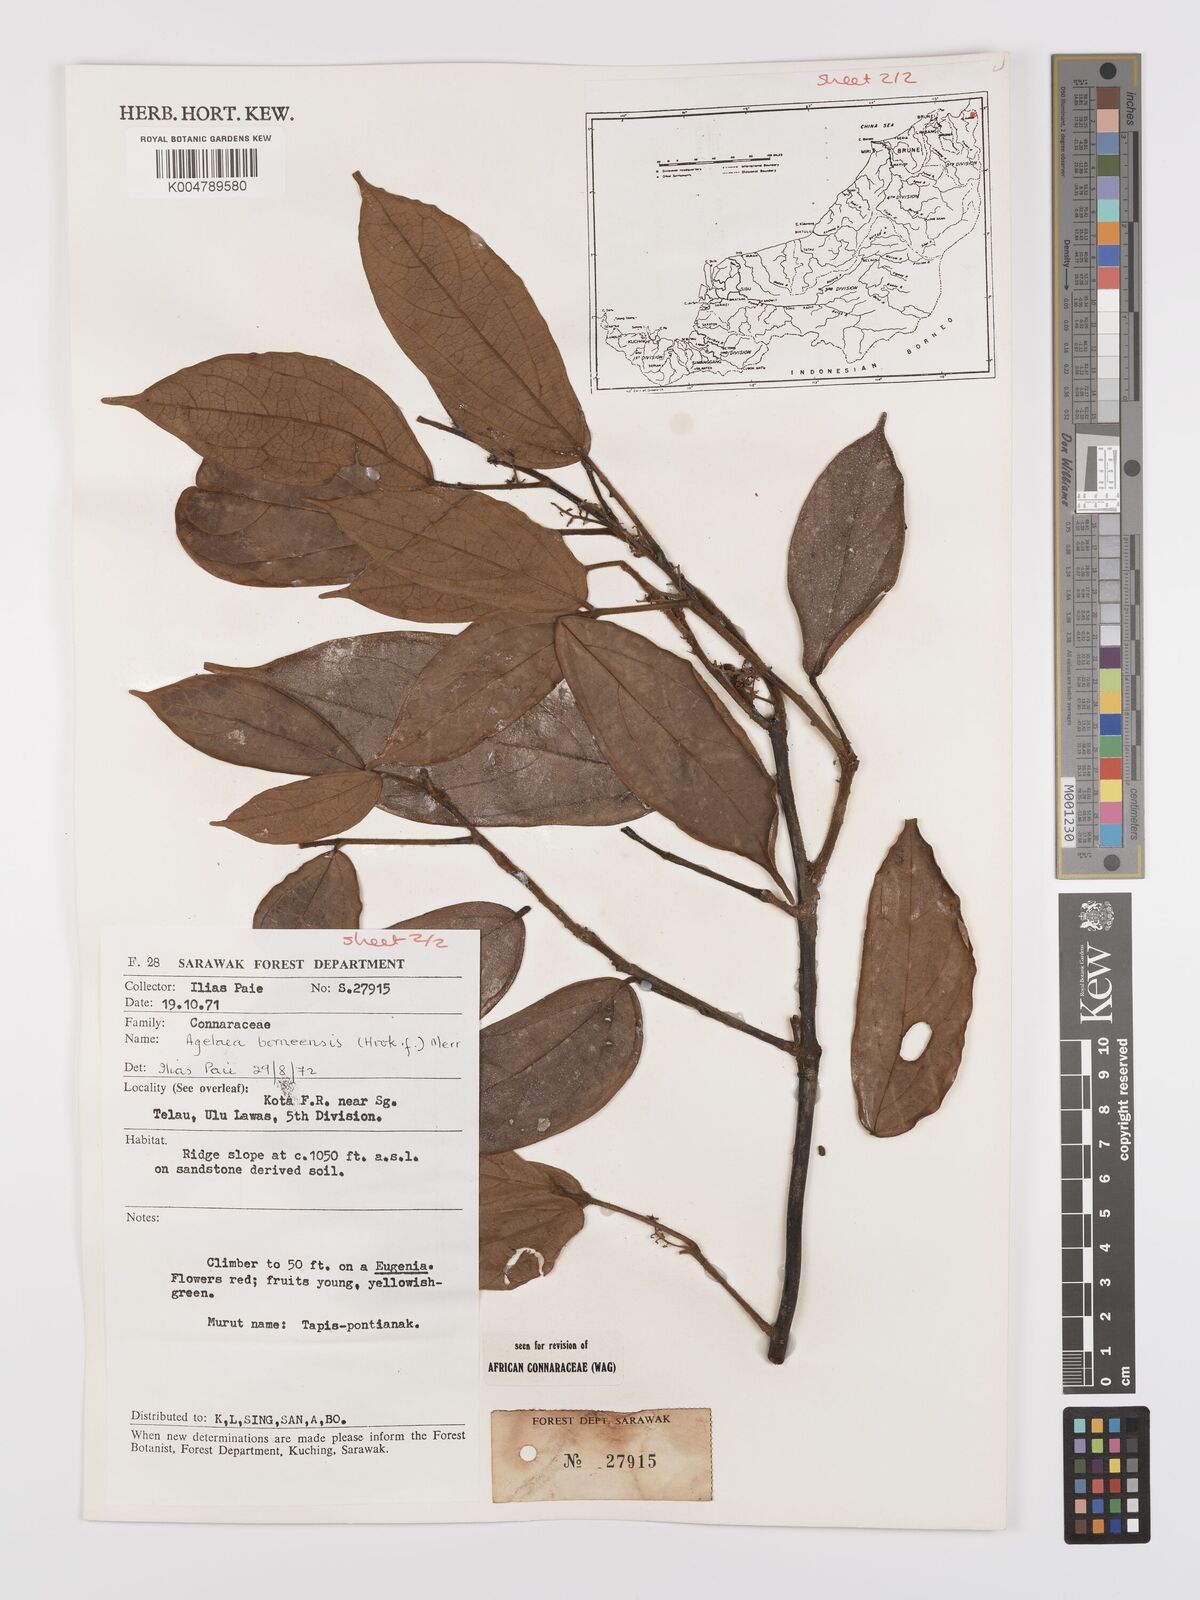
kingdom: Plantae
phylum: Tracheophyta
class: Magnoliopsida
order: Oxalidales
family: Connaraceae
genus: Agelaea
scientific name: Agelaea borneensis
